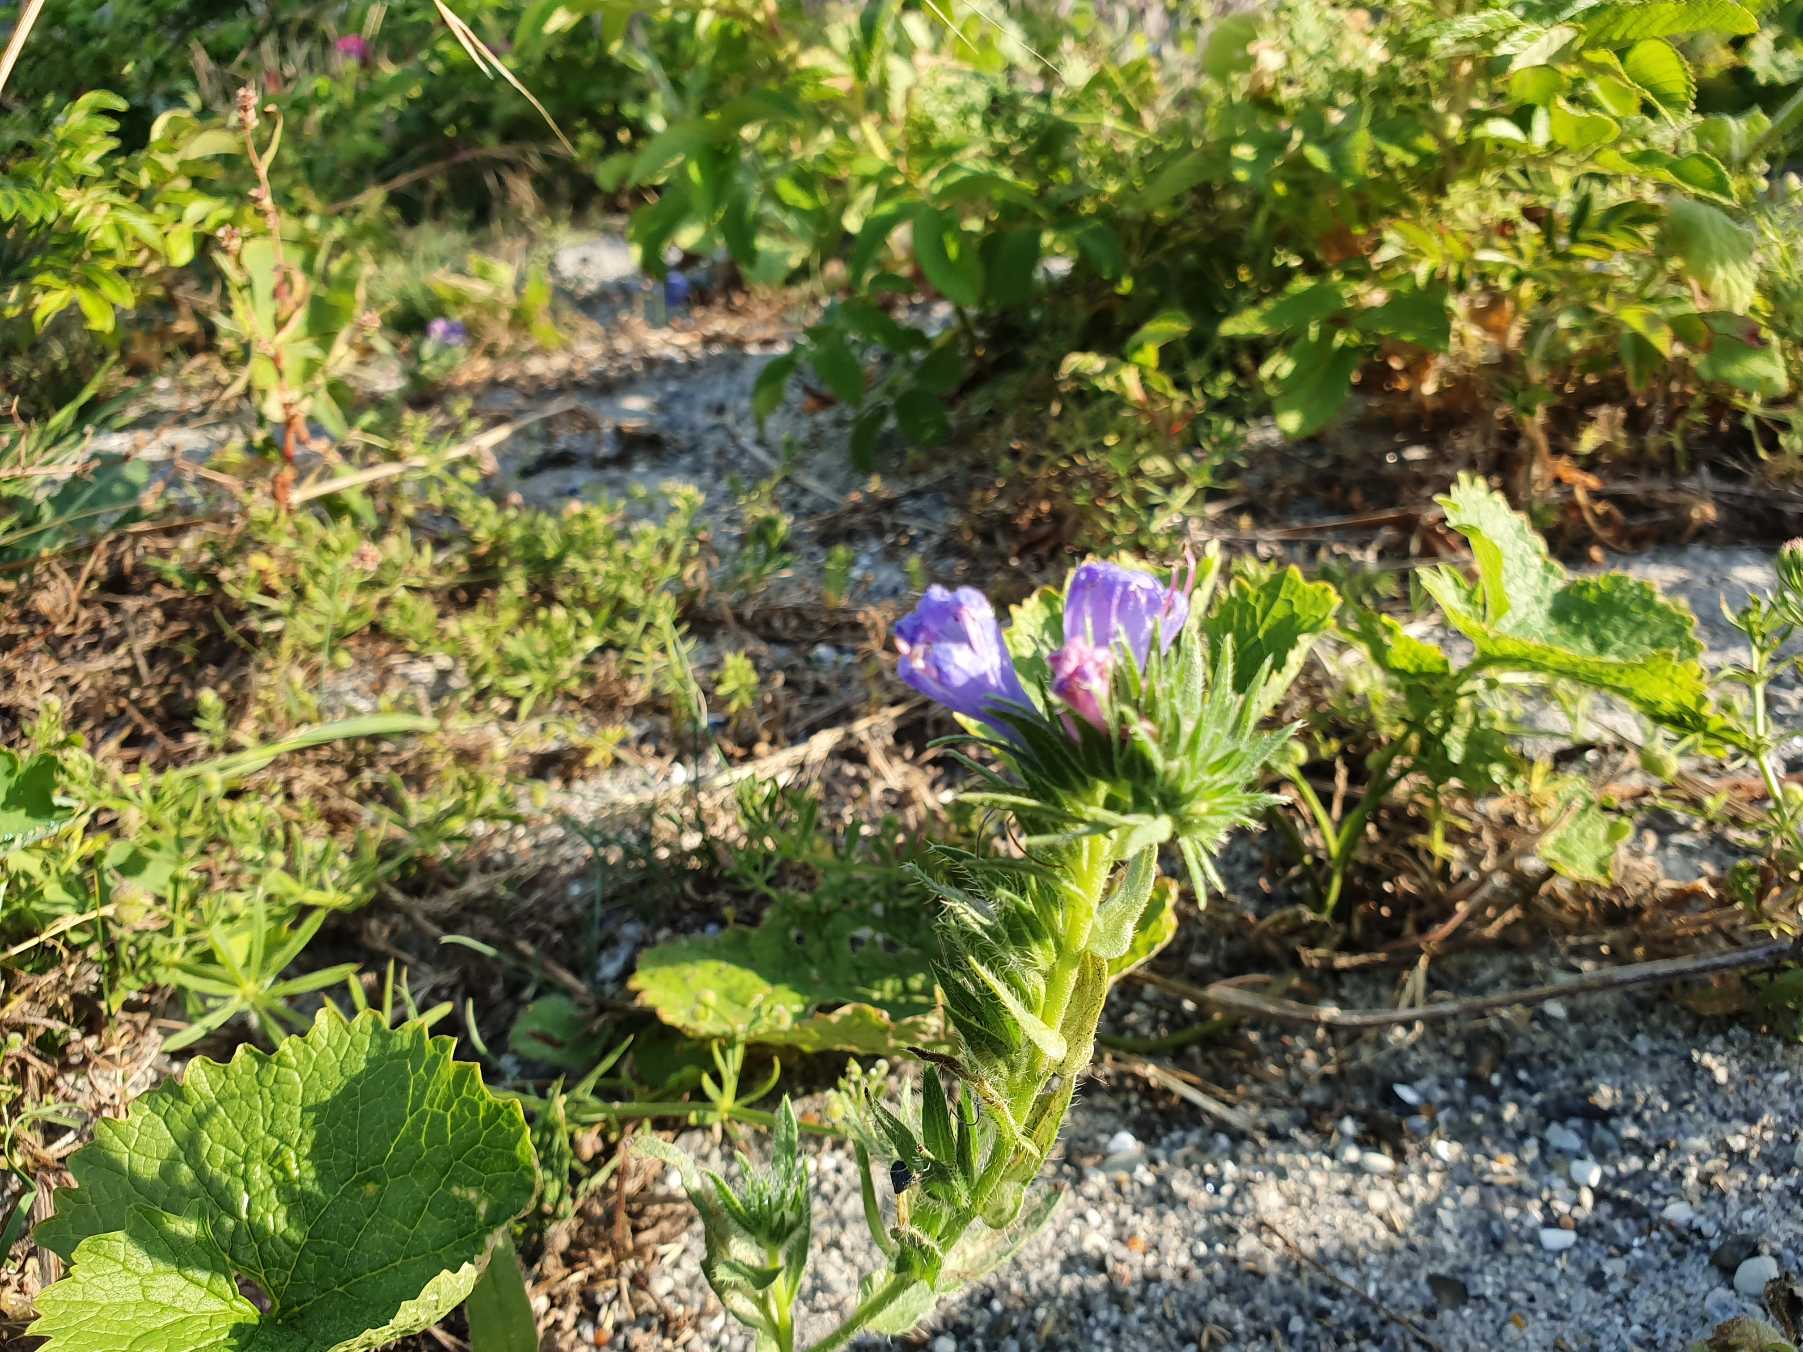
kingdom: Plantae
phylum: Tracheophyta
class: Magnoliopsida
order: Boraginales
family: Boraginaceae
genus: Echium
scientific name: Echium plantagineum
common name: Vejbred-slangehoved
